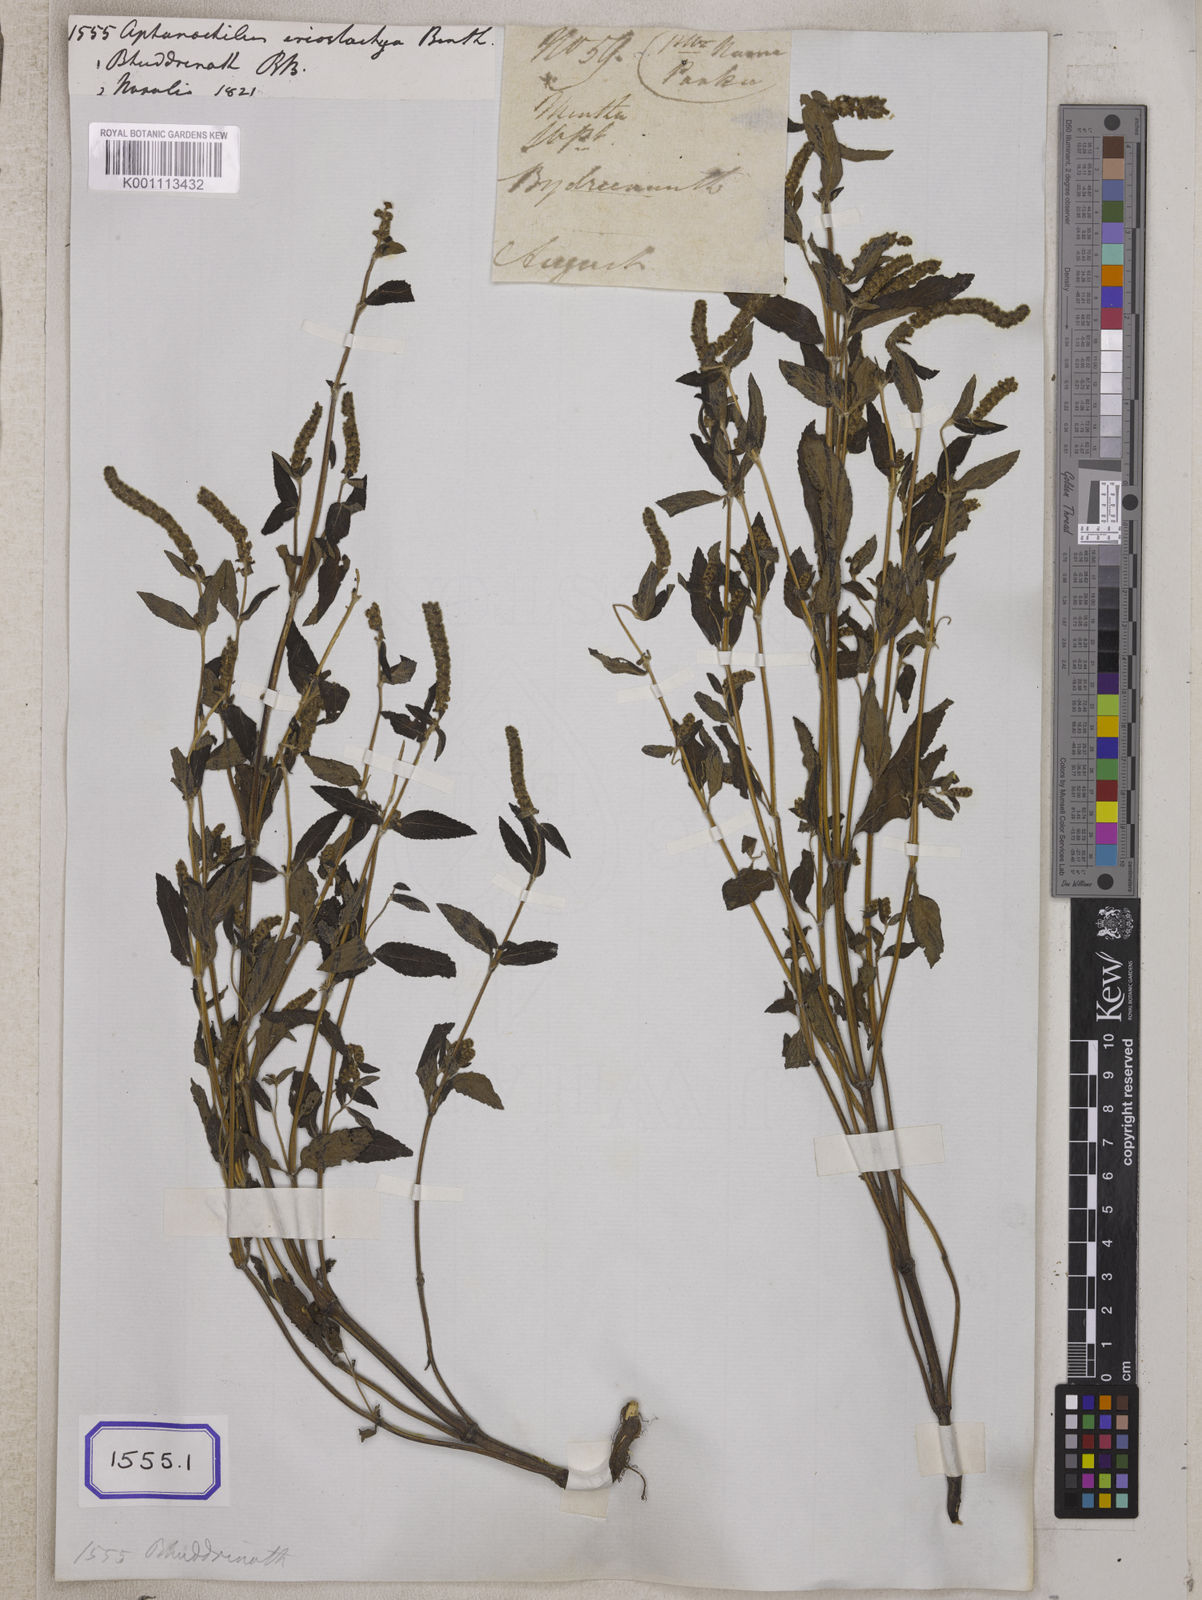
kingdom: Plantae
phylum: Tracheophyta
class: Magnoliopsida
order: Lamiales
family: Lamiaceae
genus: Elsholtzia
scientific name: Elsholtzia eriostachya
